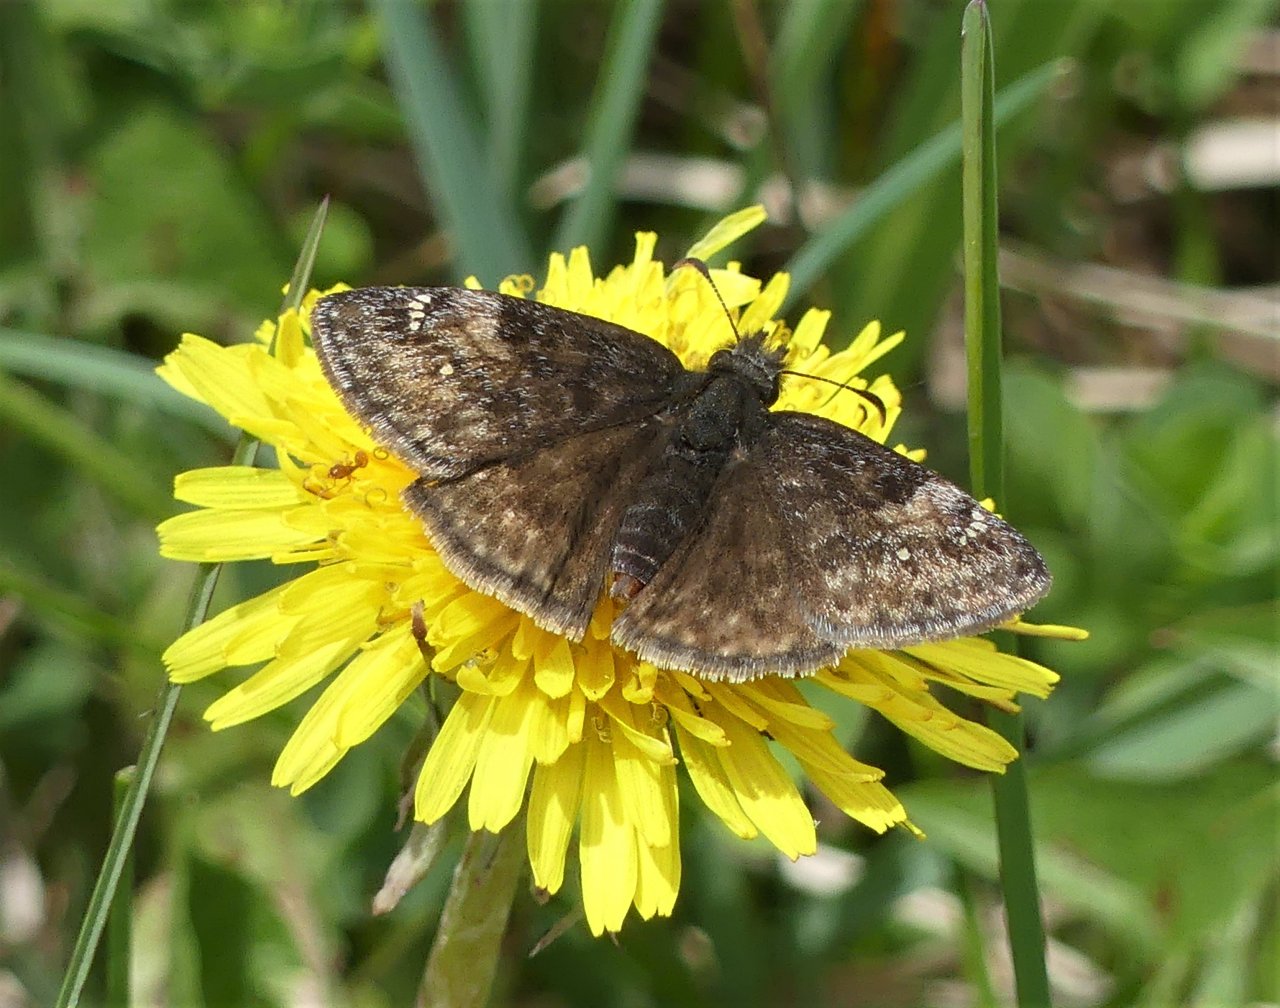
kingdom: Animalia
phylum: Arthropoda
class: Insecta
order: Lepidoptera
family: Hesperiidae
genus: Gesta
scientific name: Gesta
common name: Columbine Duskywing
